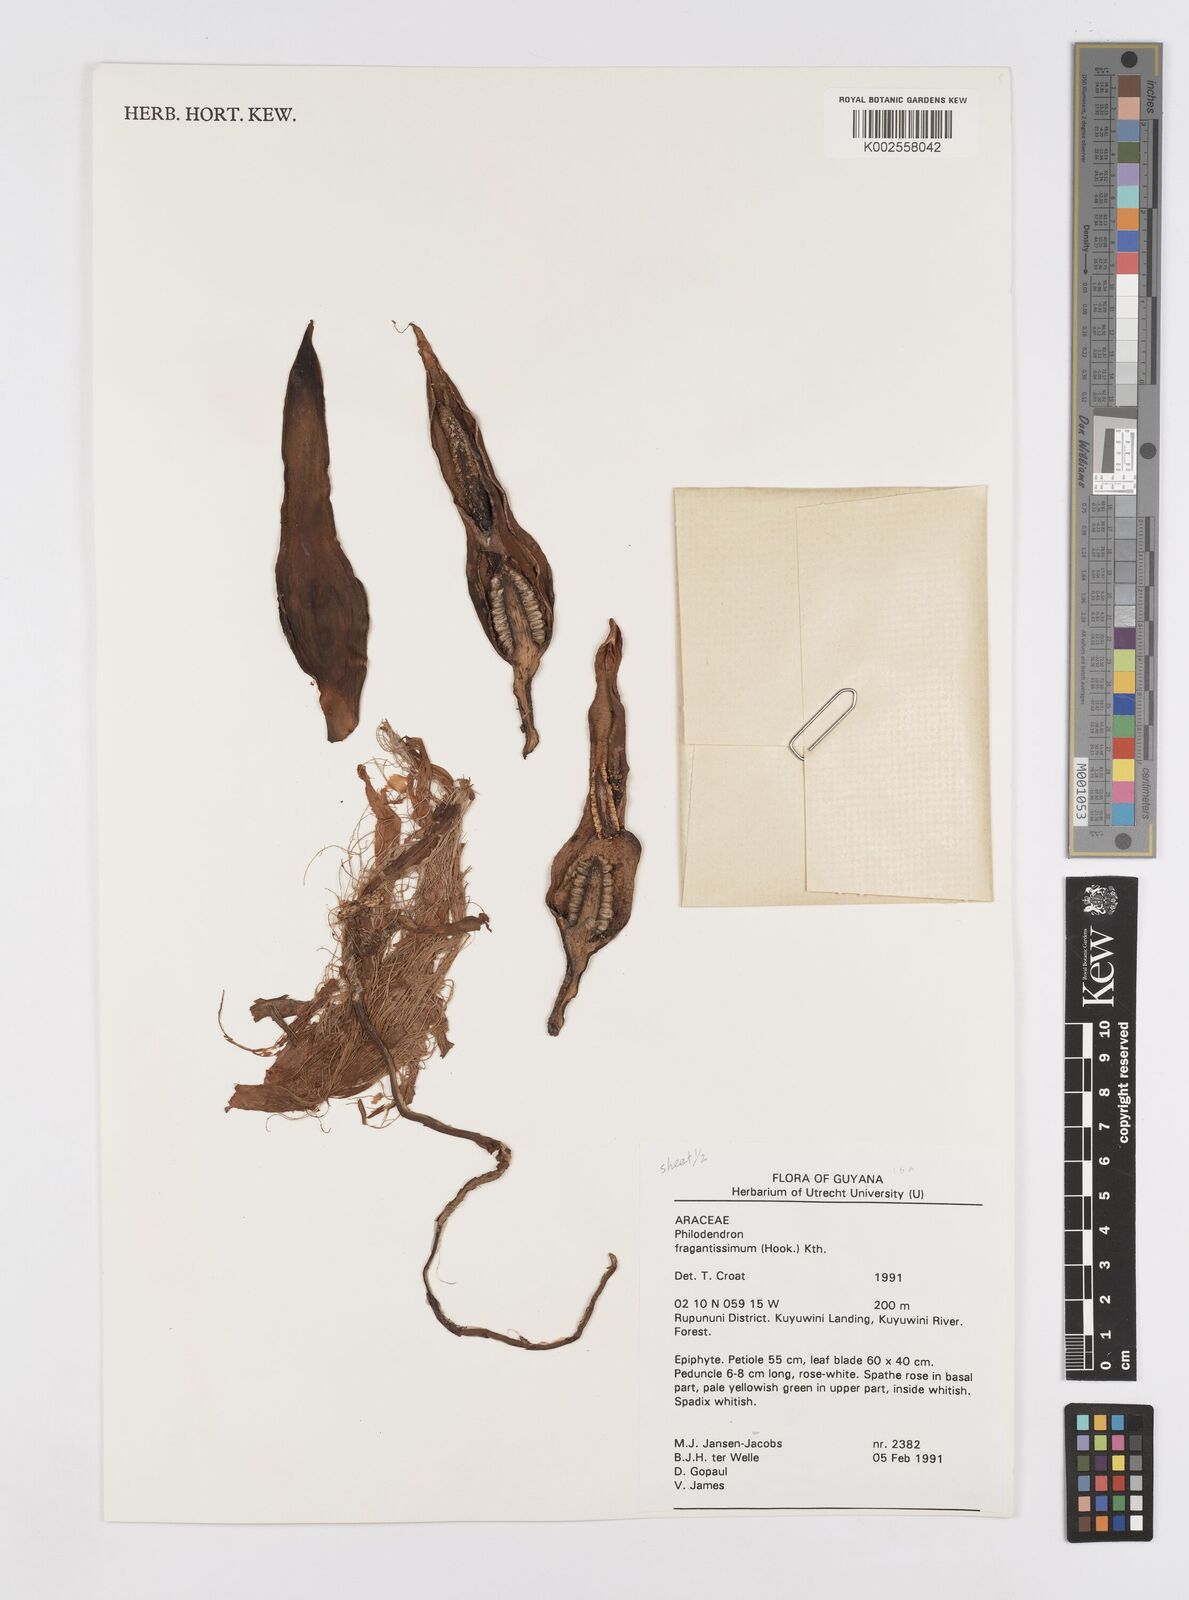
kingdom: Plantae
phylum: Tracheophyta
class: Liliopsida
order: Alismatales
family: Araceae
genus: Philodendron
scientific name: Philodendron fragrantissimum
